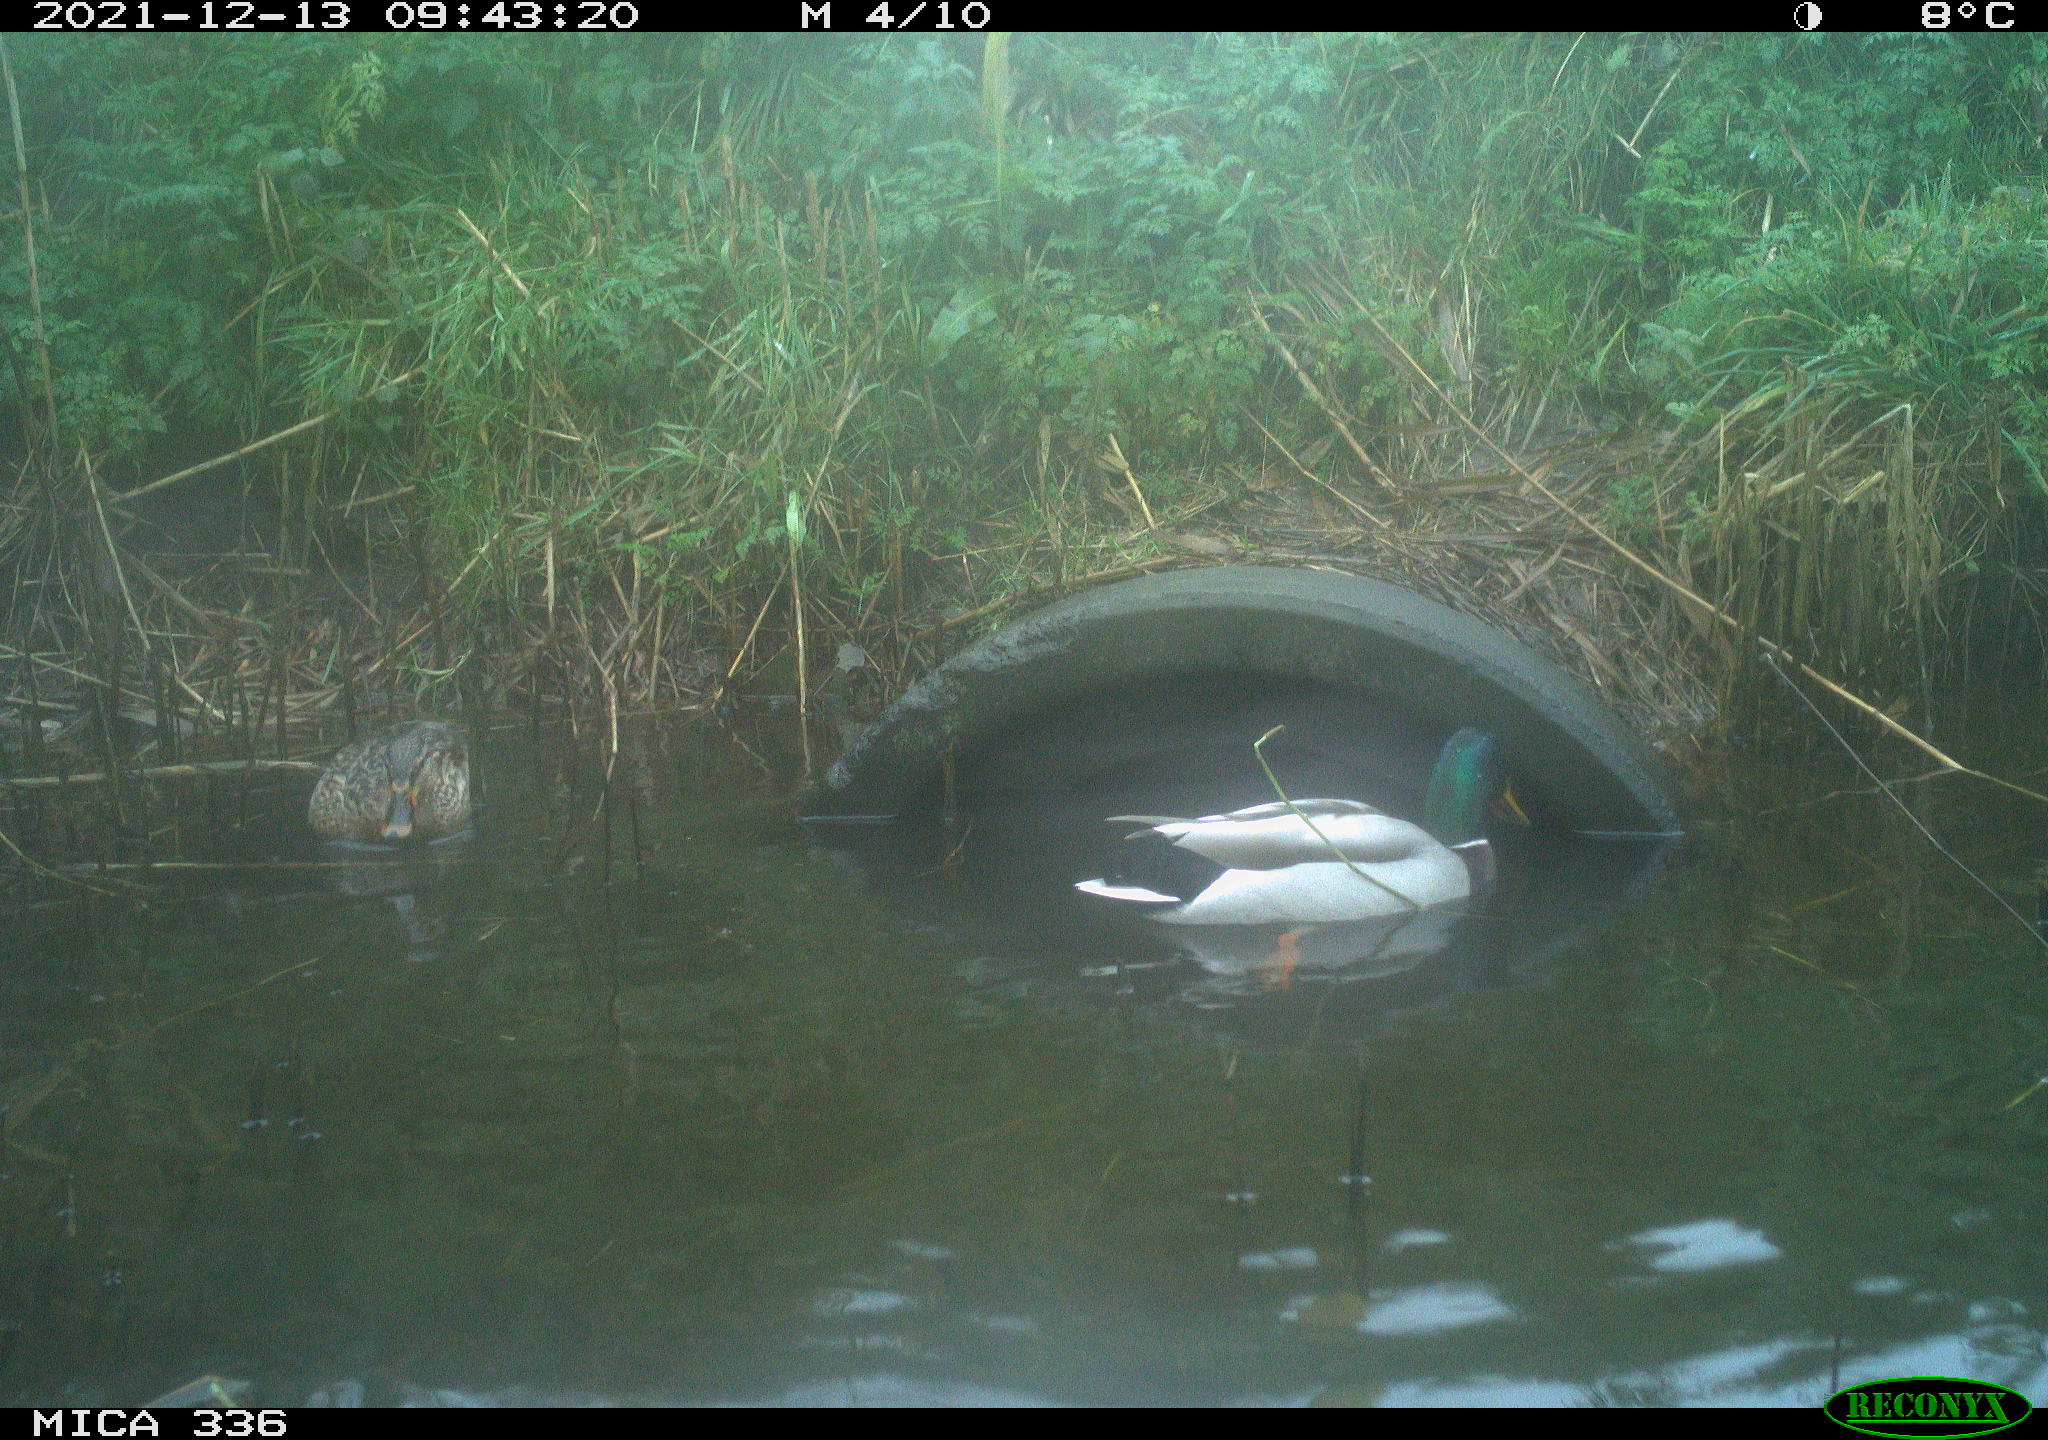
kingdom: Animalia
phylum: Chordata
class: Aves
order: Gruiformes
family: Rallidae
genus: Gallinula
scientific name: Gallinula chloropus
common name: Common moorhen
